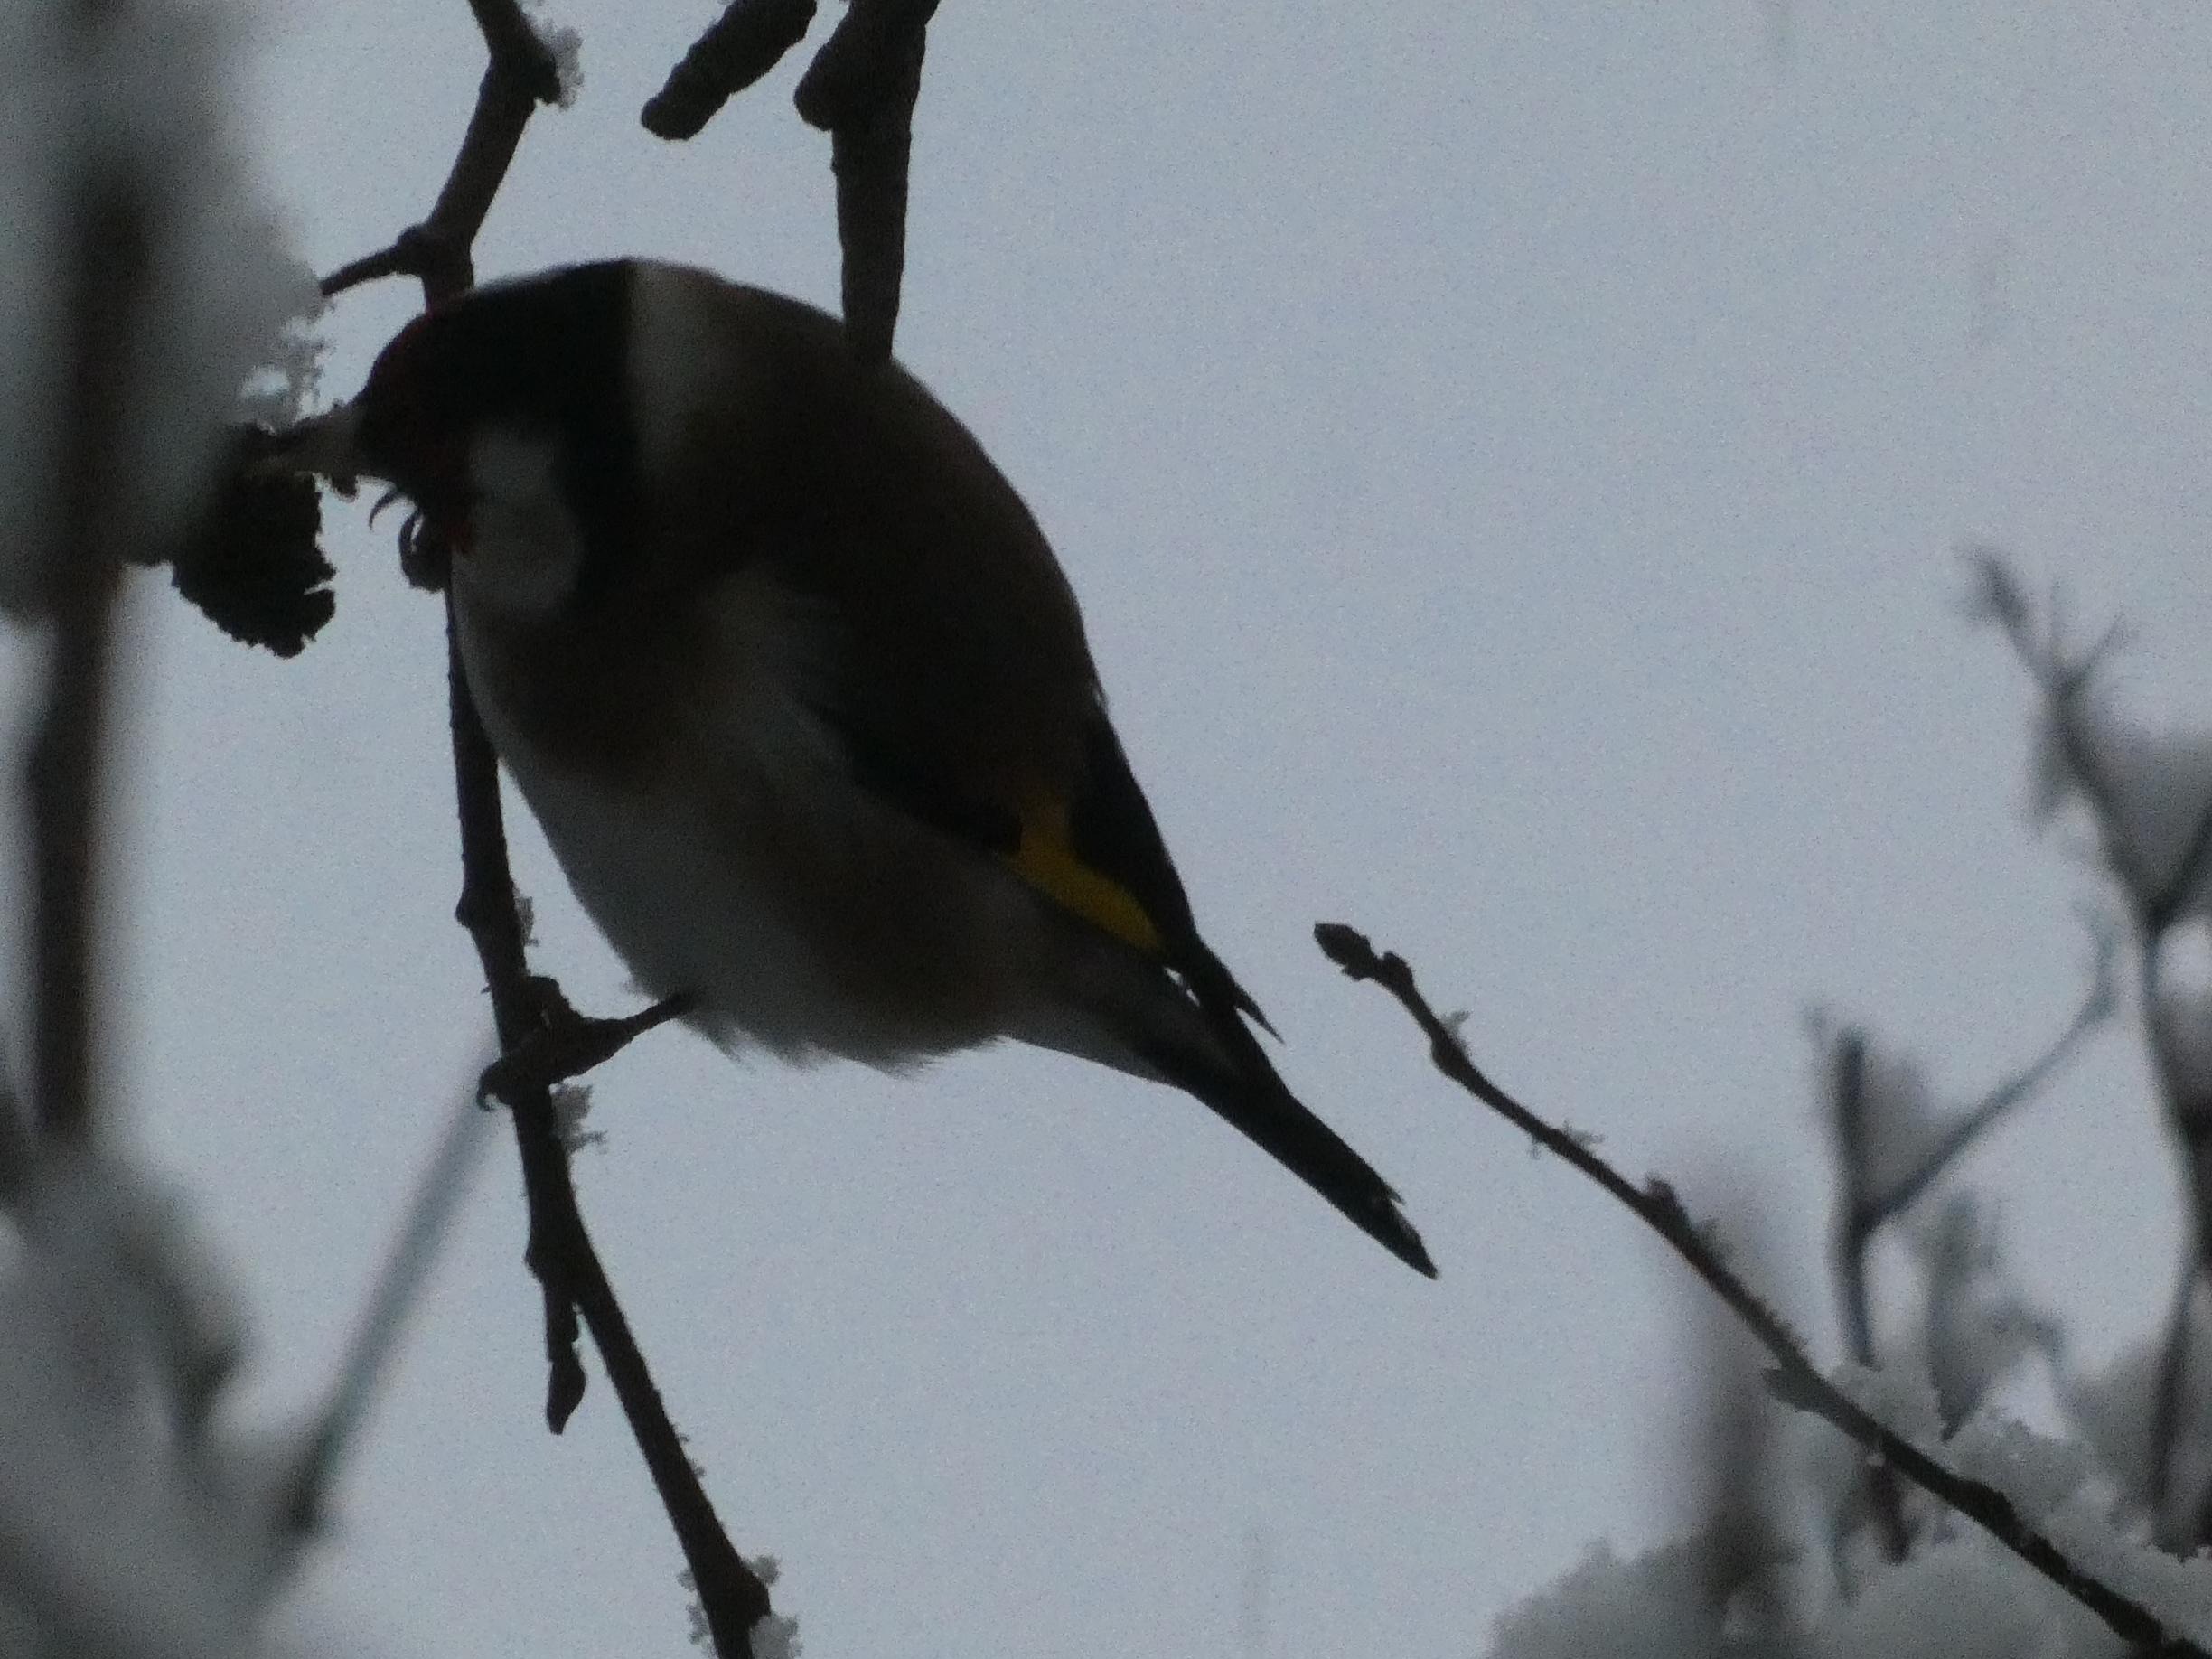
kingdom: Animalia
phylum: Chordata
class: Aves
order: Passeriformes
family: Fringillidae
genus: Carduelis
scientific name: Carduelis carduelis
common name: Stillits
